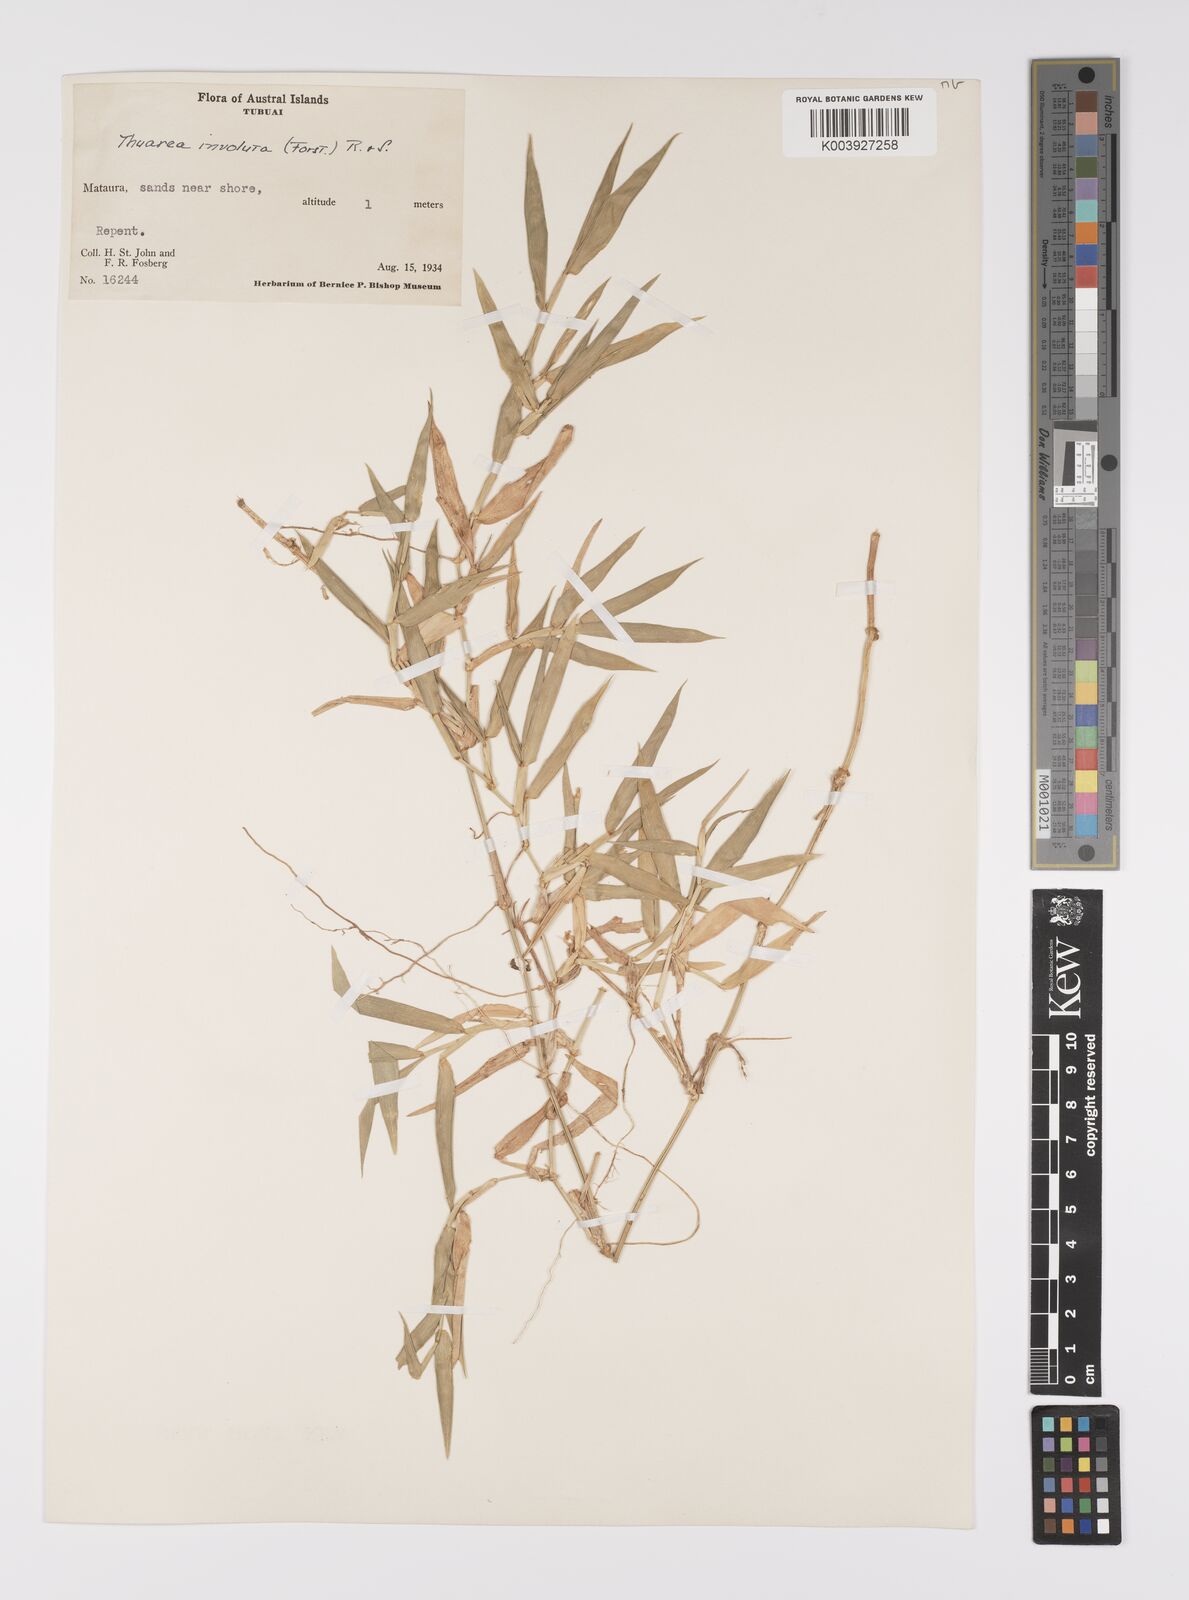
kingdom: Plantae
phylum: Tracheophyta
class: Liliopsida
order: Poales
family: Poaceae
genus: Thuarea
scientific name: Thuarea involuta
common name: Tropical beach grass
